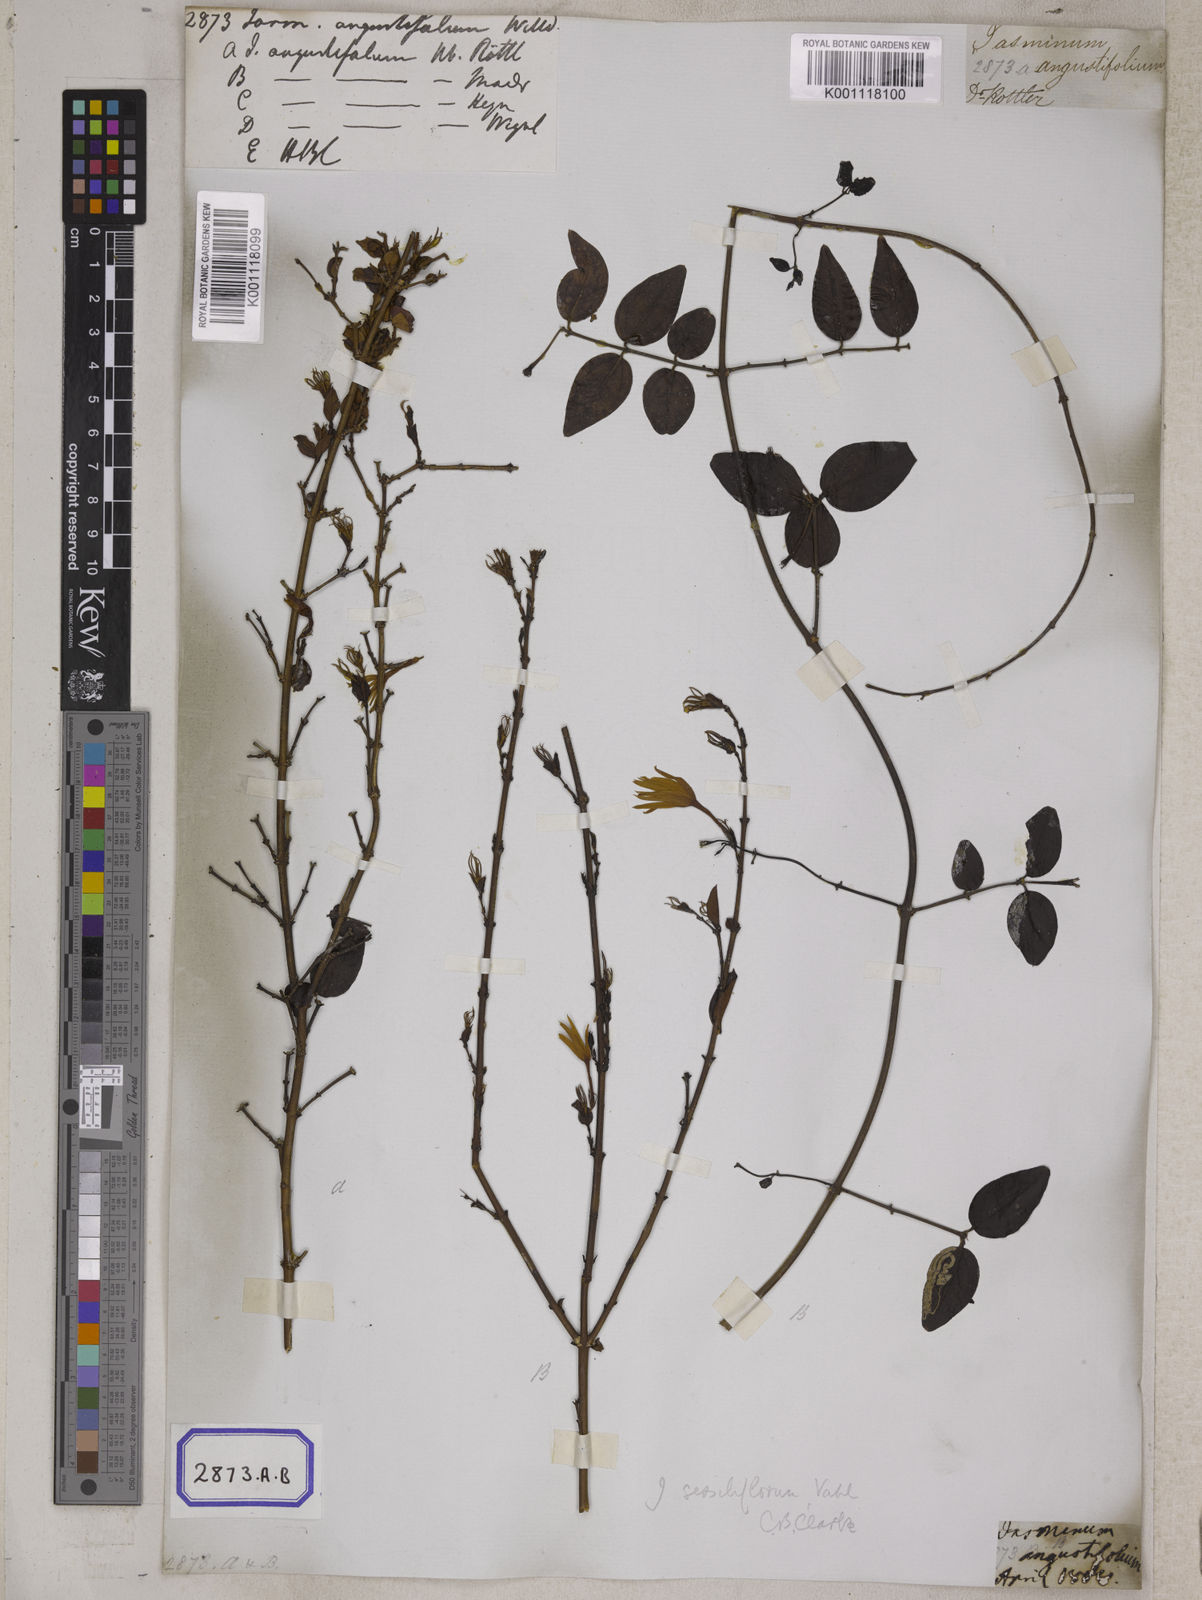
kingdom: Plantae
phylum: Tracheophyta
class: Magnoliopsida
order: Lamiales
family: Oleaceae
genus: Jasminum
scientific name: Jasminum angustifolium
